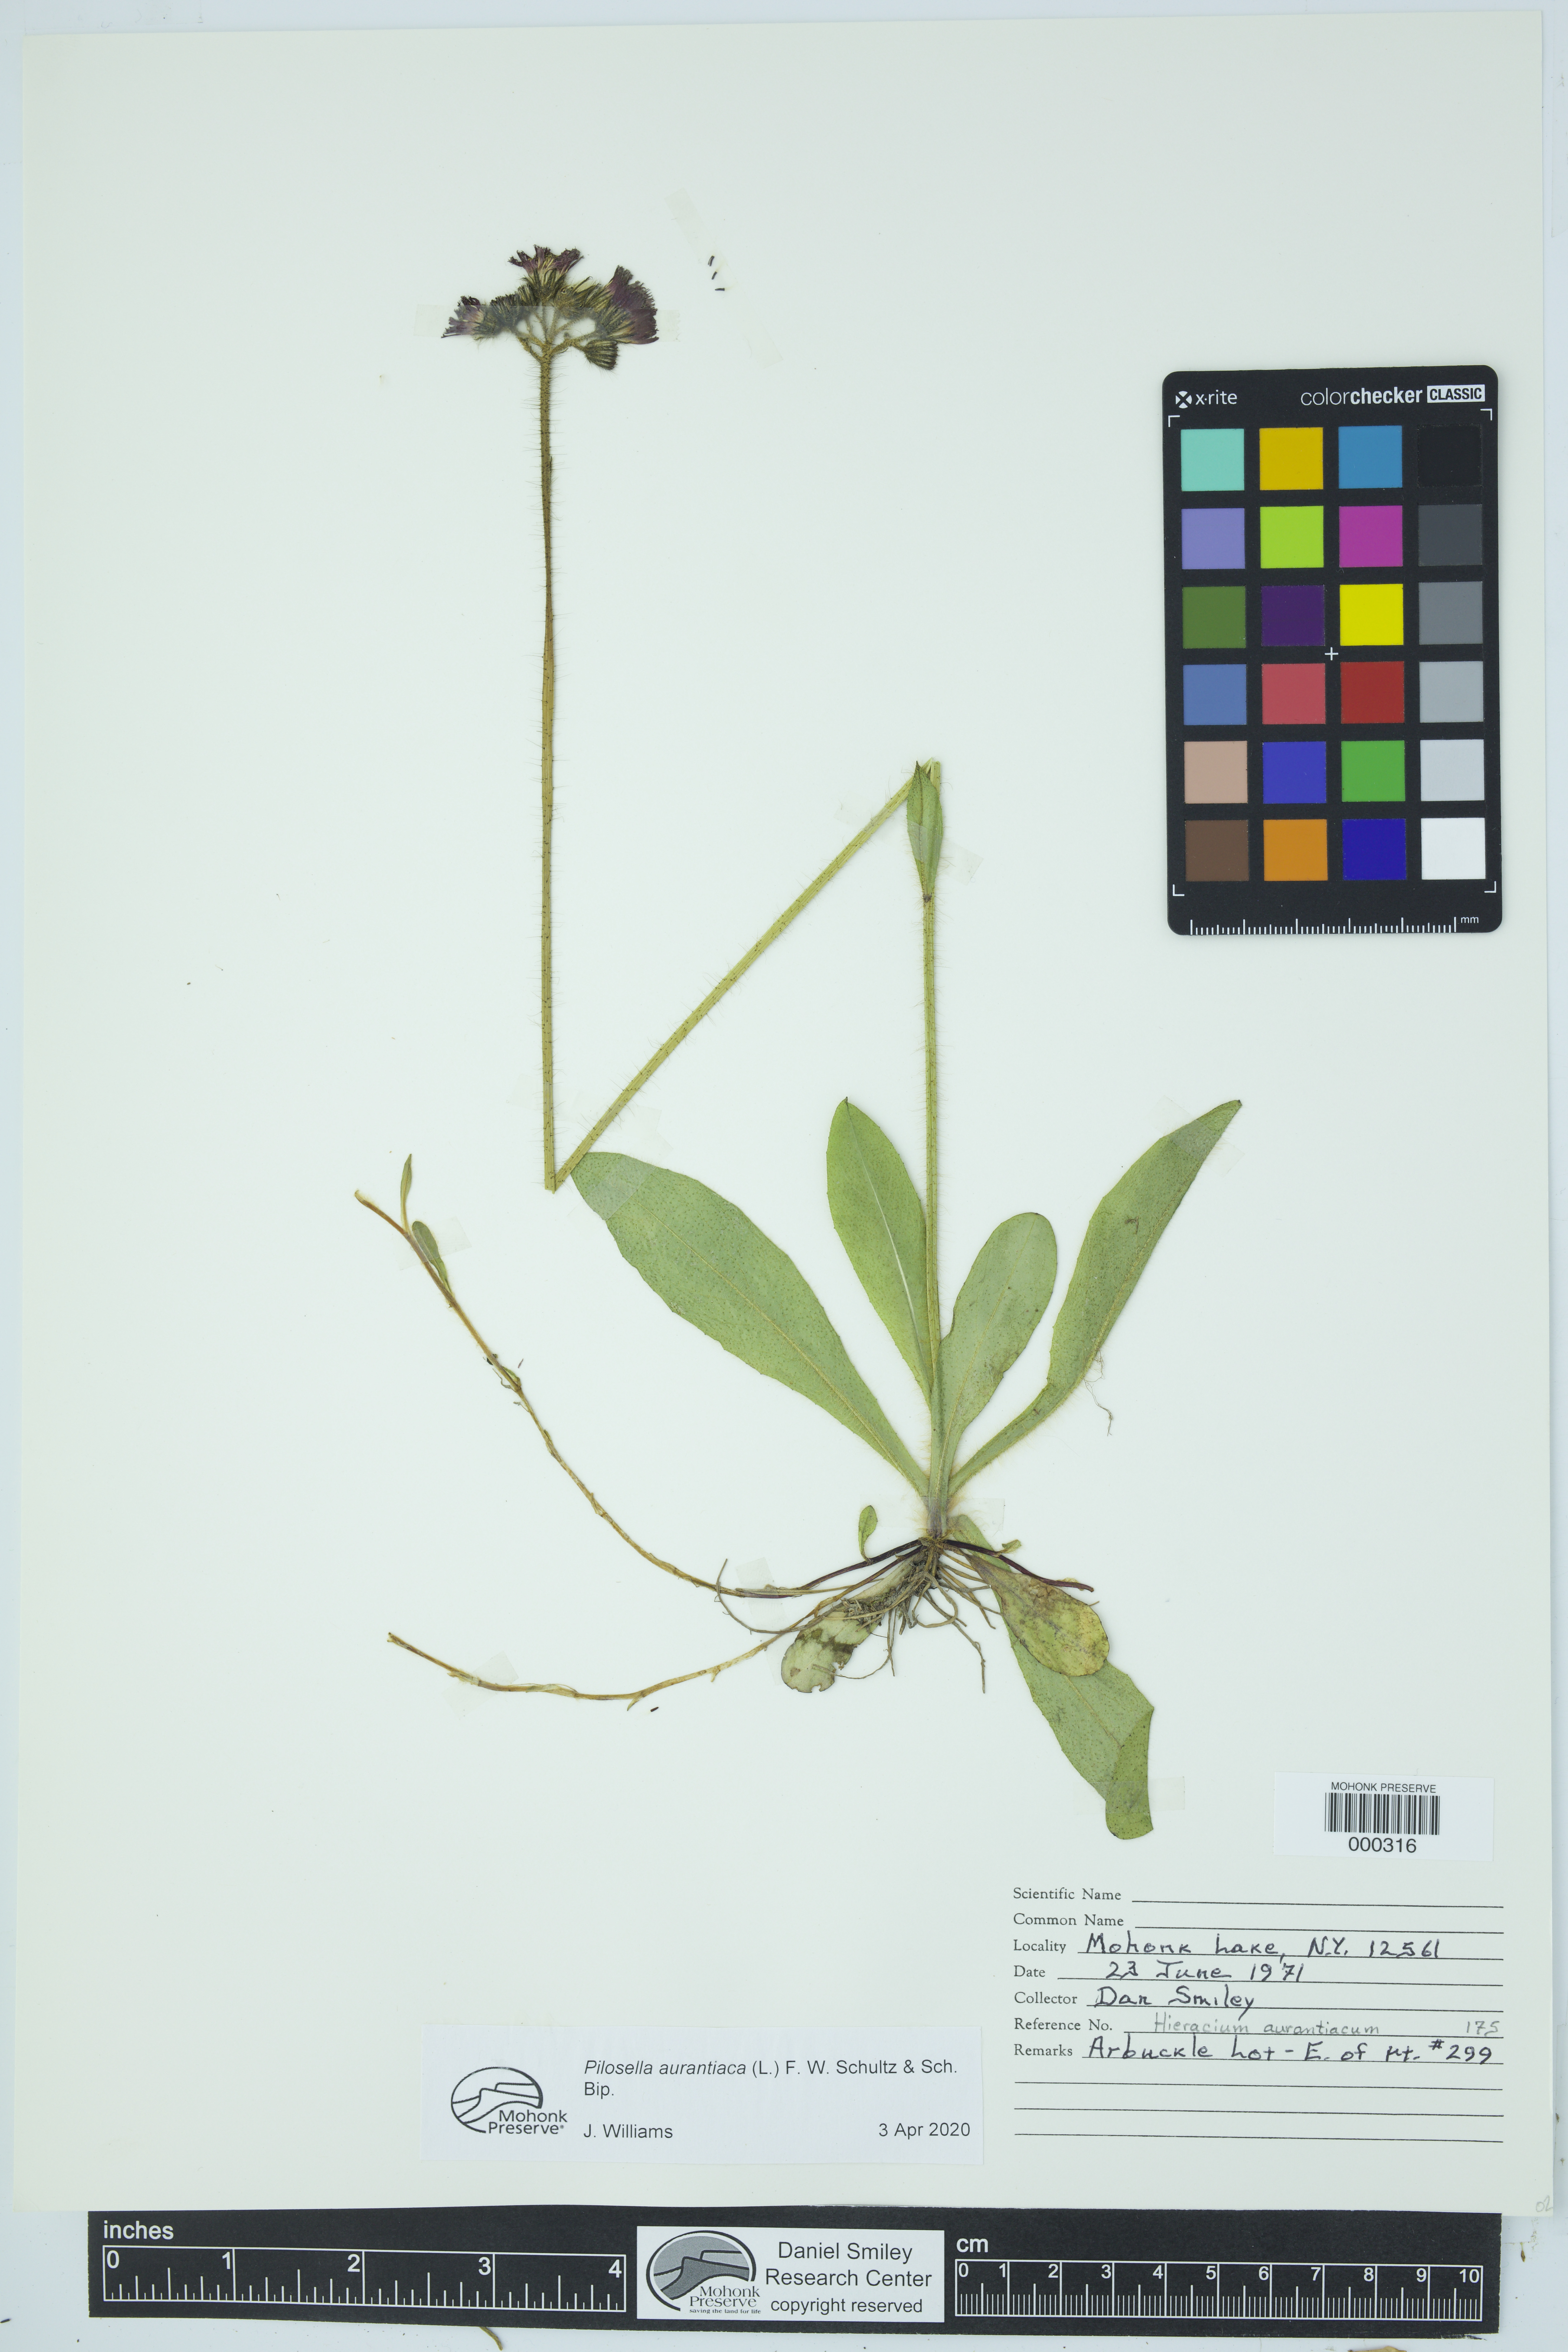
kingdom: Plantae
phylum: Tracheophyta
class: Magnoliopsida
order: Asterales
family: Asteraceae
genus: Pilosella
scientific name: Pilosella aurantiaca
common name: Fox-and-cubs
